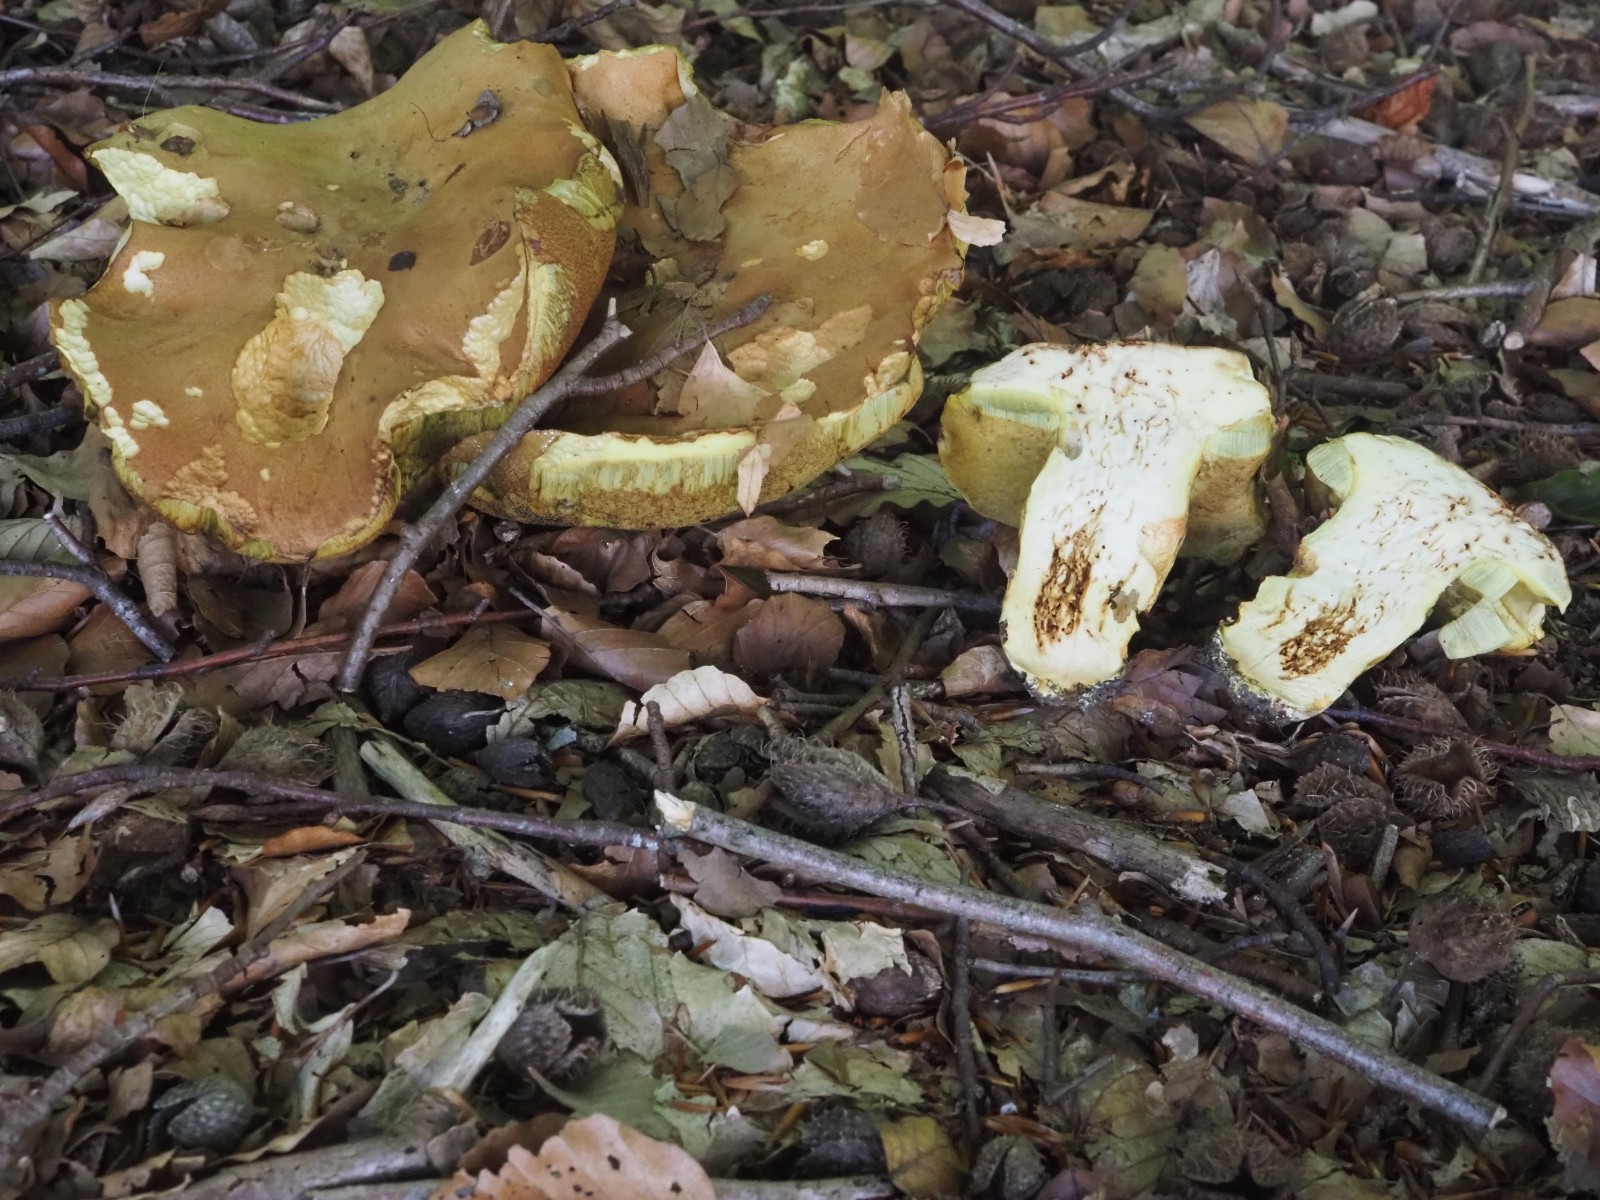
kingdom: Fungi
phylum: Basidiomycota
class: Agaricomycetes
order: Boletales
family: Boletaceae
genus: Butyriboletus
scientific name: Butyriboletus appendiculatus
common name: tenstokket rørhat
